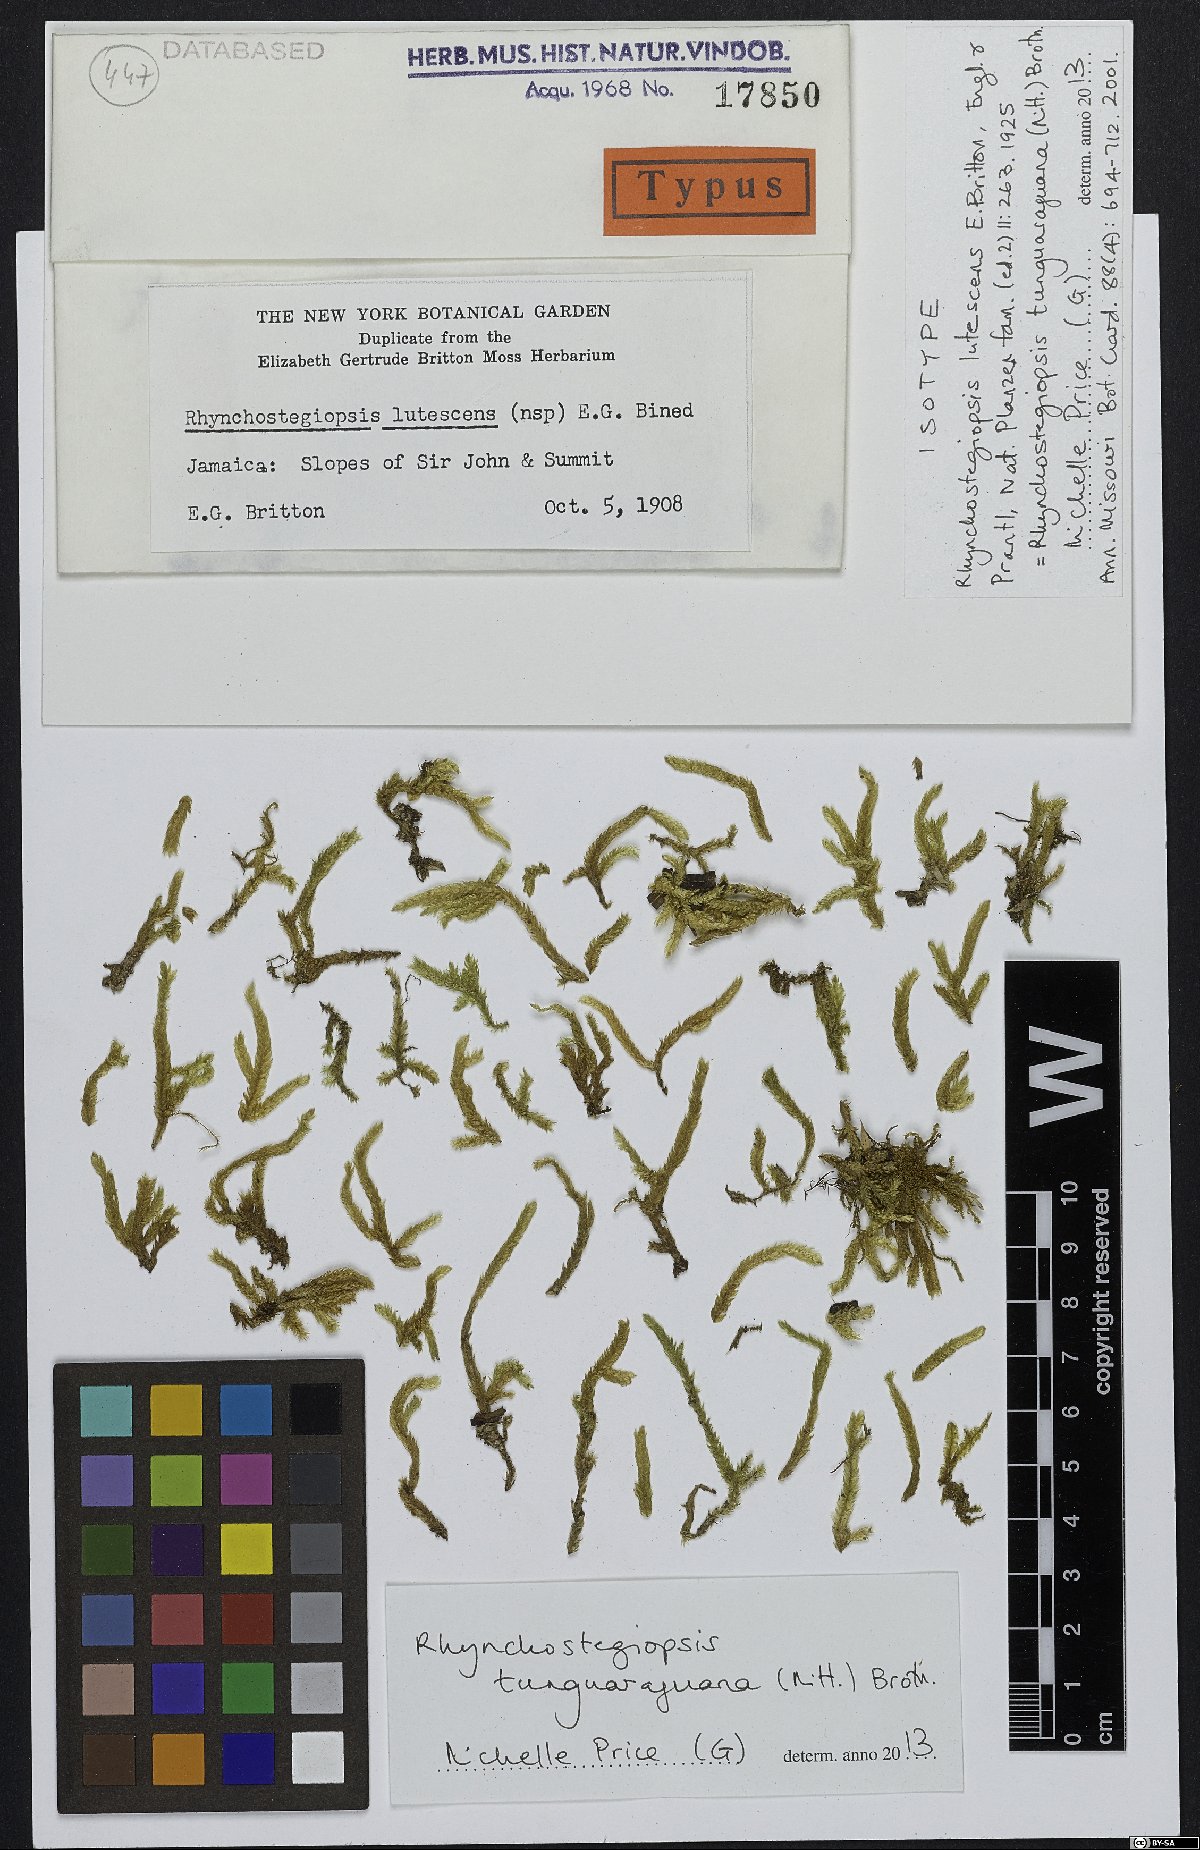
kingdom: Plantae
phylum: Bryophyta
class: Bryopsida
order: Hookeriales
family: Leucomiaceae
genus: Rhynchostegiopsis
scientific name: Rhynchostegiopsis tunguraguana
